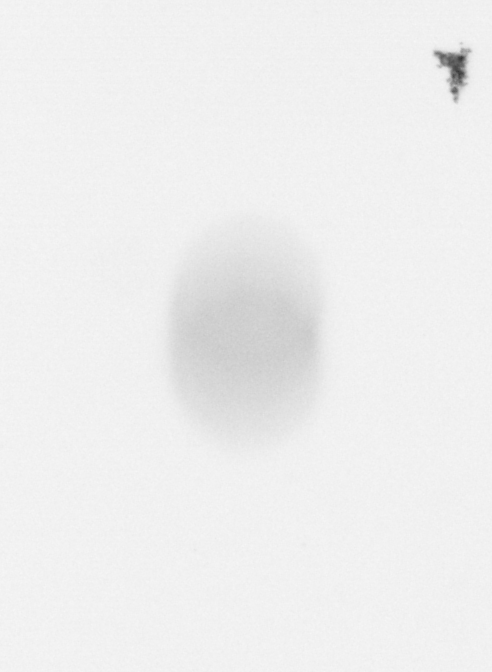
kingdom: Chromista
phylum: Ochrophyta
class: Bacillariophyceae
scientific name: Bacillariophyceae
